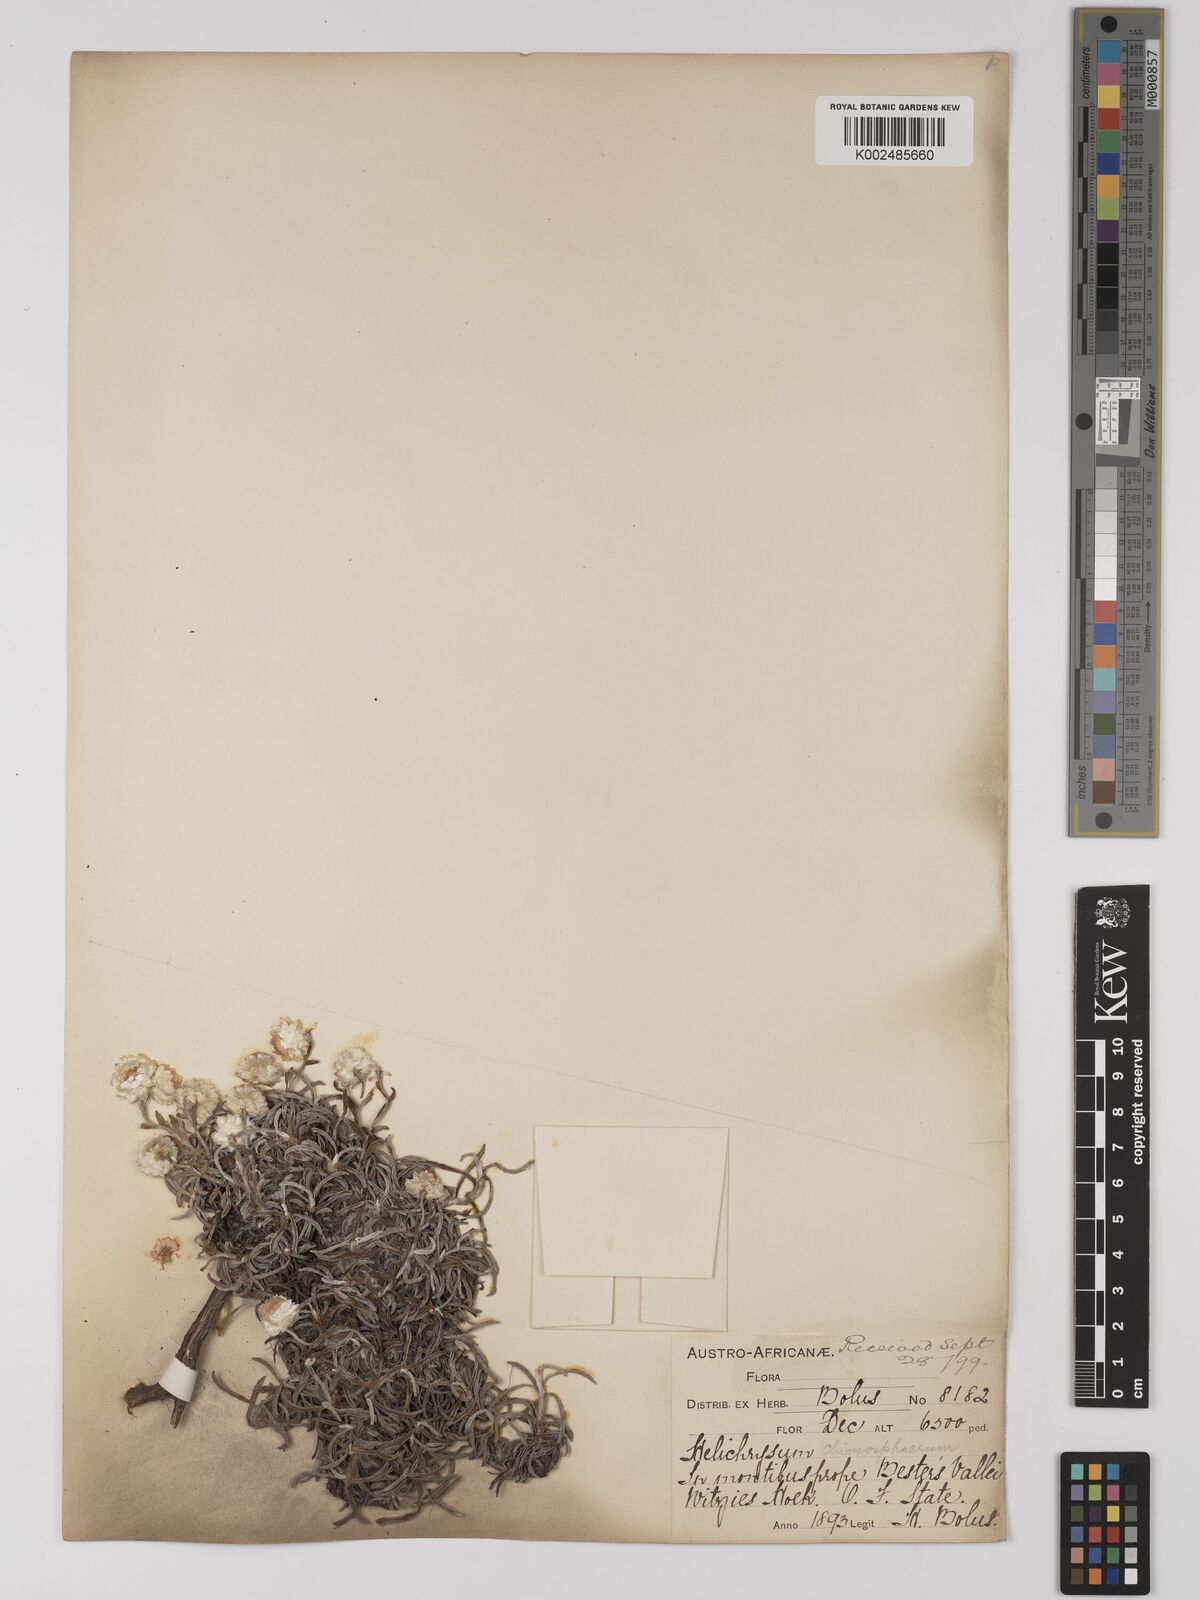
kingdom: Plantae
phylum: Tracheophyta
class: Magnoliopsida
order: Asterales
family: Asteraceae
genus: Helichrysum
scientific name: Helichrysum chionosphaerum
